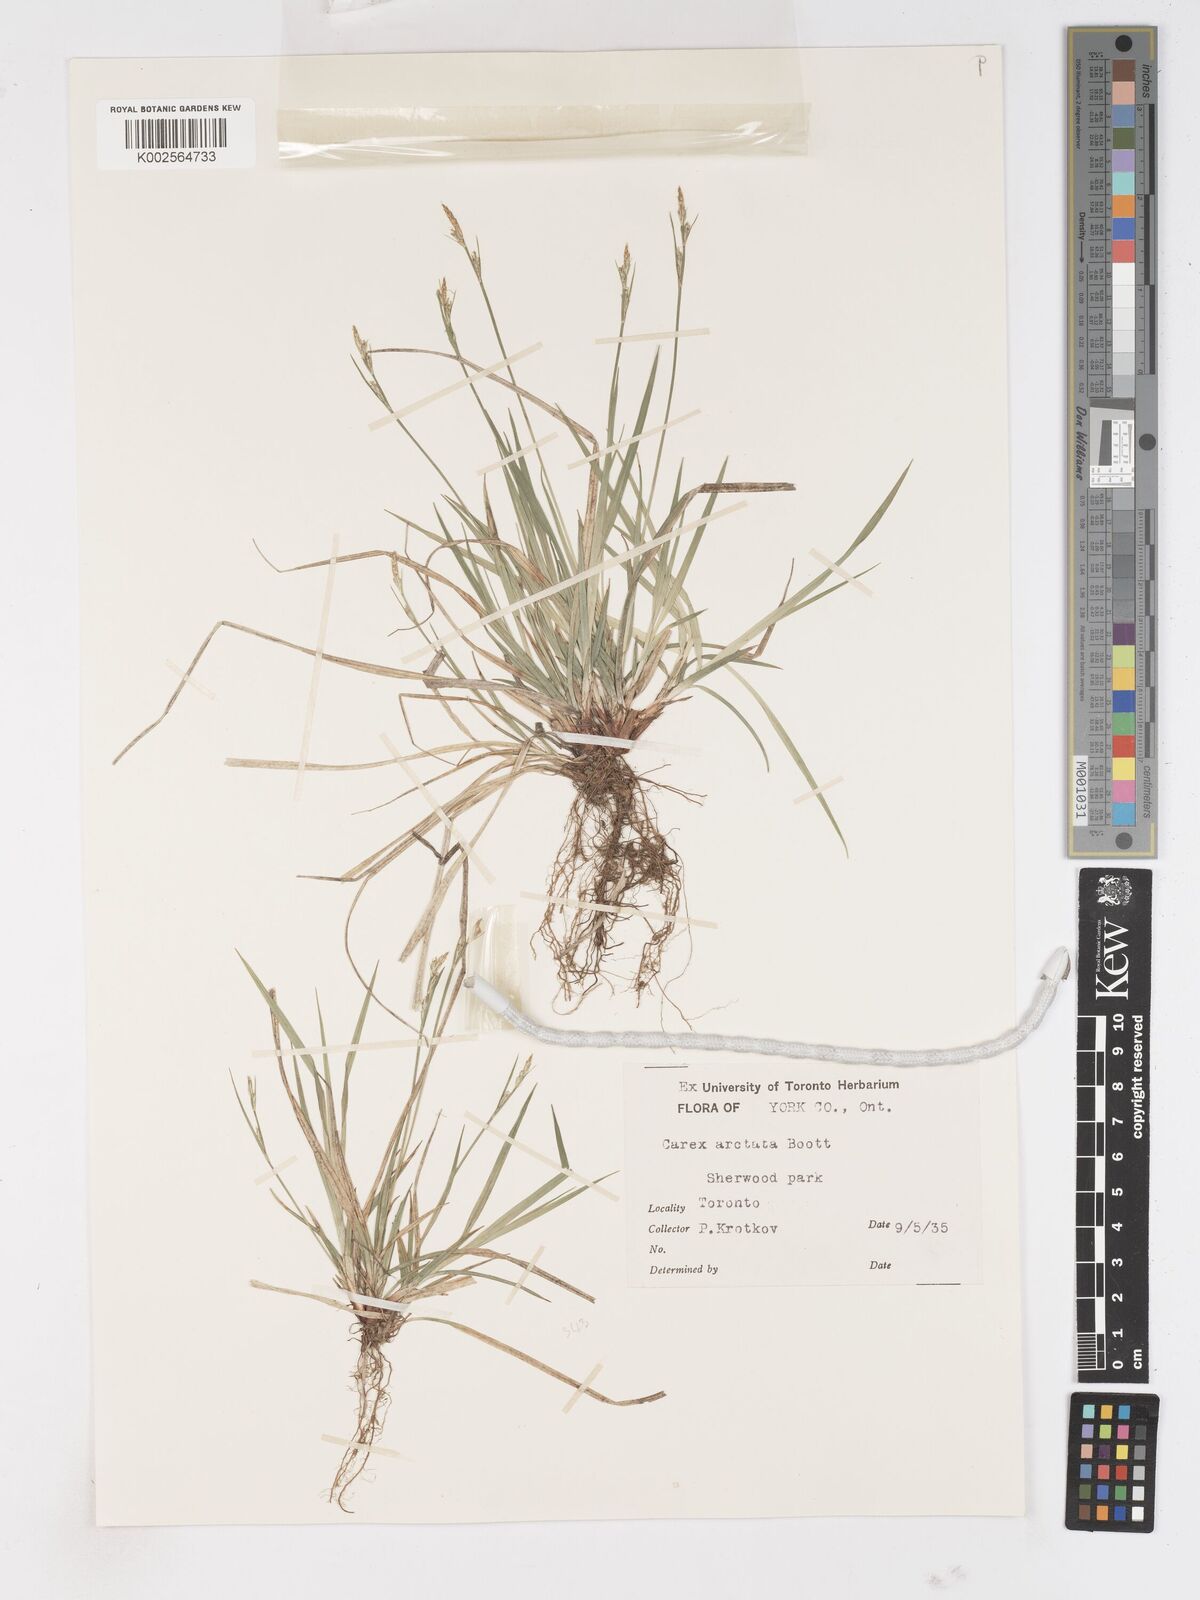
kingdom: Plantae
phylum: Tracheophyta
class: Liliopsida
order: Poales
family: Cyperaceae
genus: Carex
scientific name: Carex
